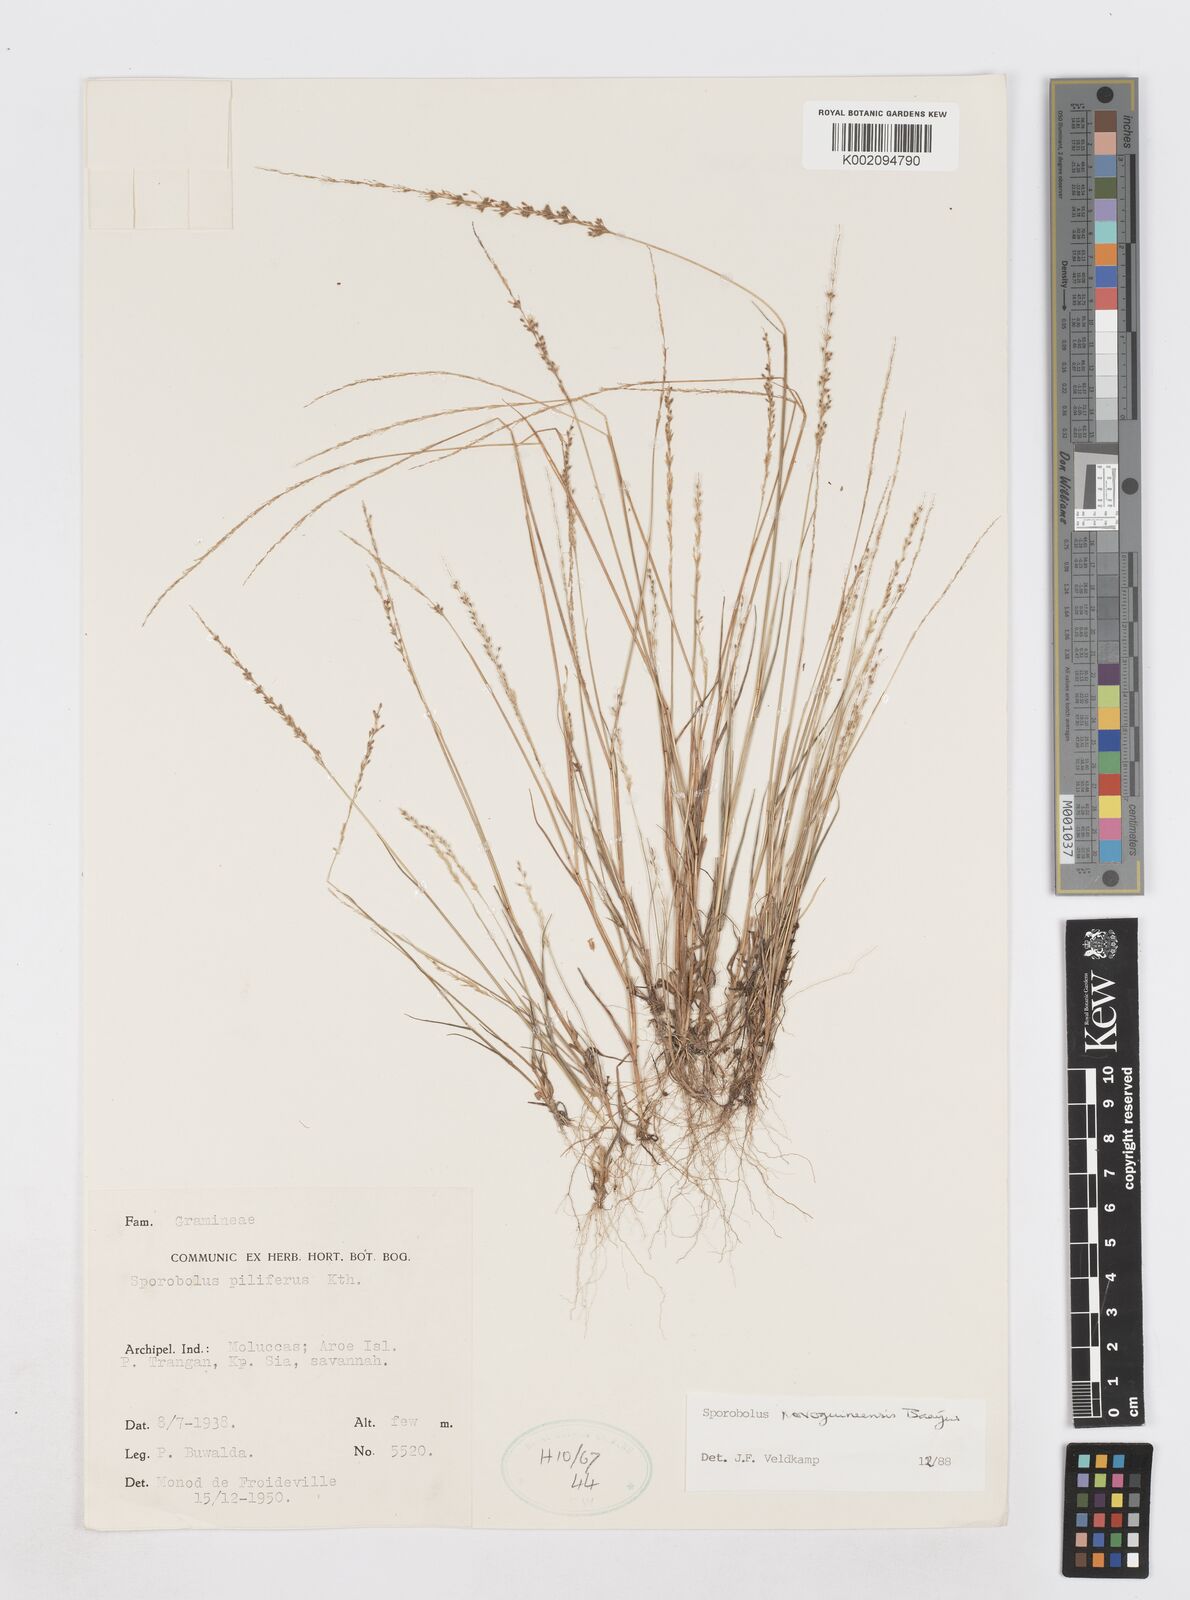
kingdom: Plantae
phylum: Tracheophyta
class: Liliopsida
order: Poales
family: Poaceae
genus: Sporobolus
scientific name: Sporobolus novoguineensis
